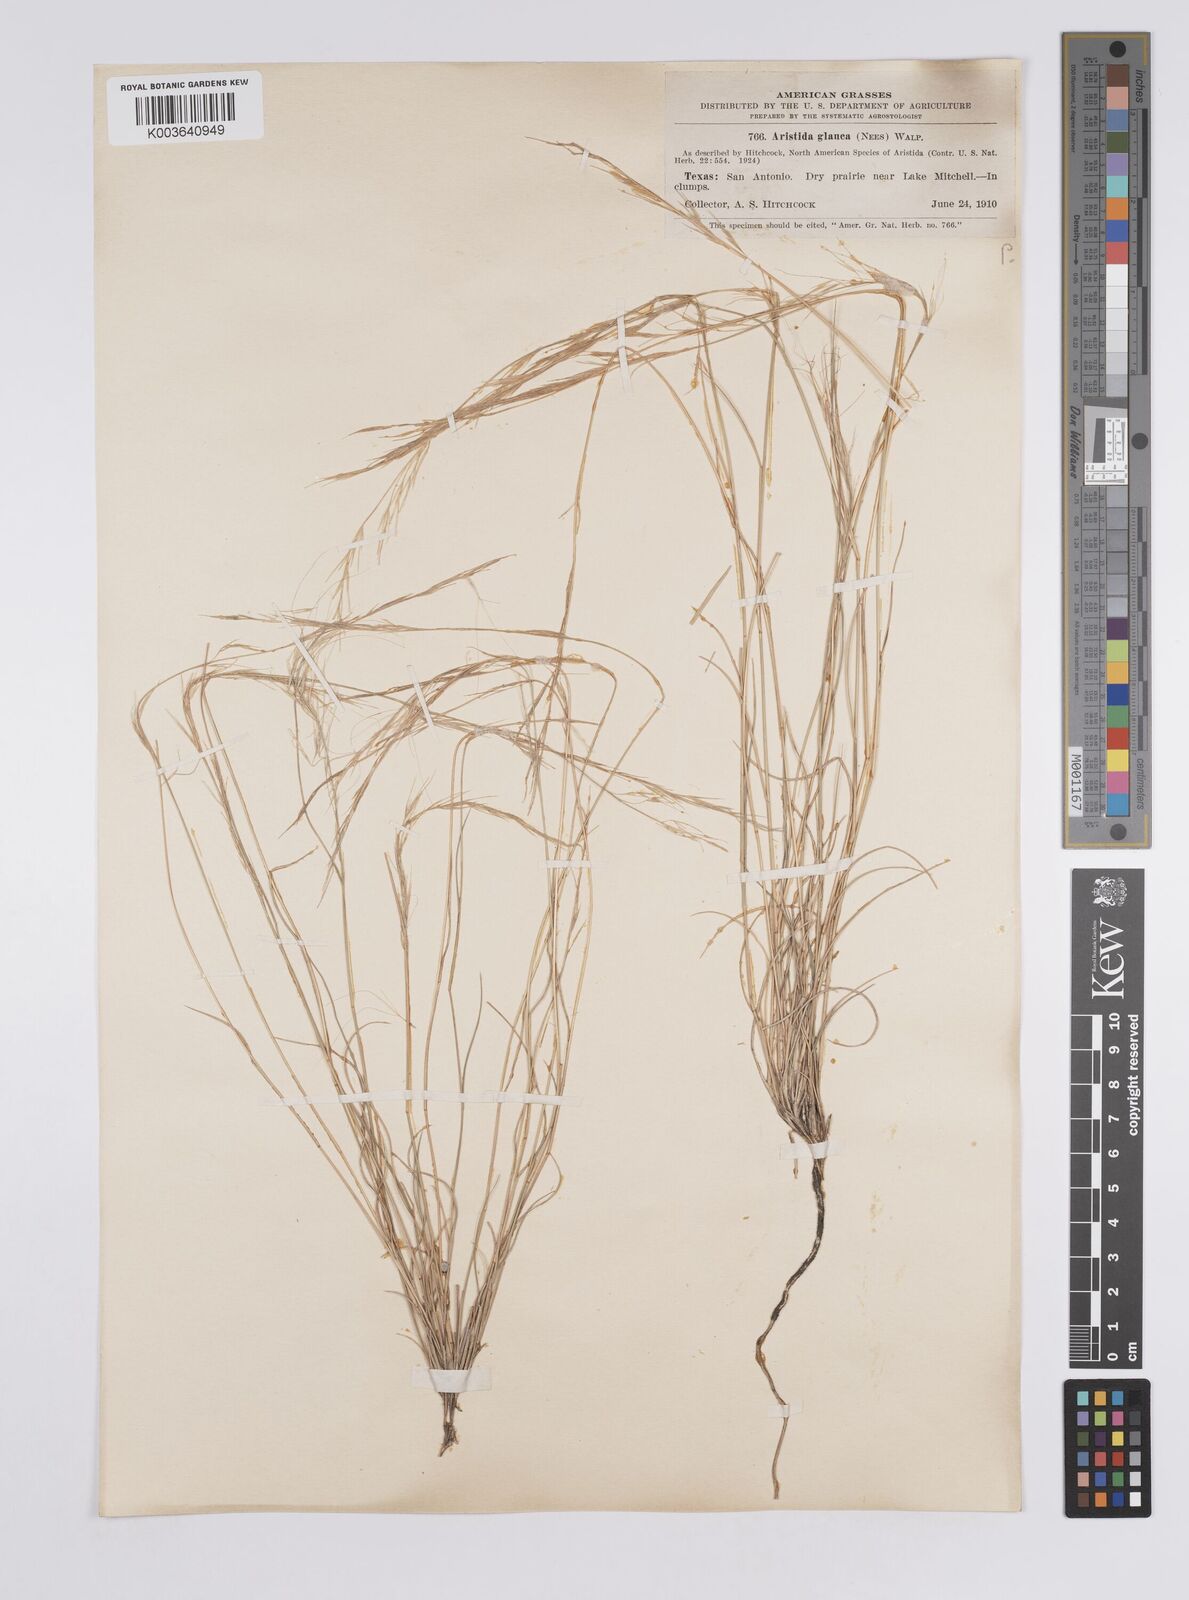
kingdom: Plantae
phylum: Tracheophyta
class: Liliopsida
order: Poales
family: Poaceae
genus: Aristida
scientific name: Aristida purpurea
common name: Purple threeawn
